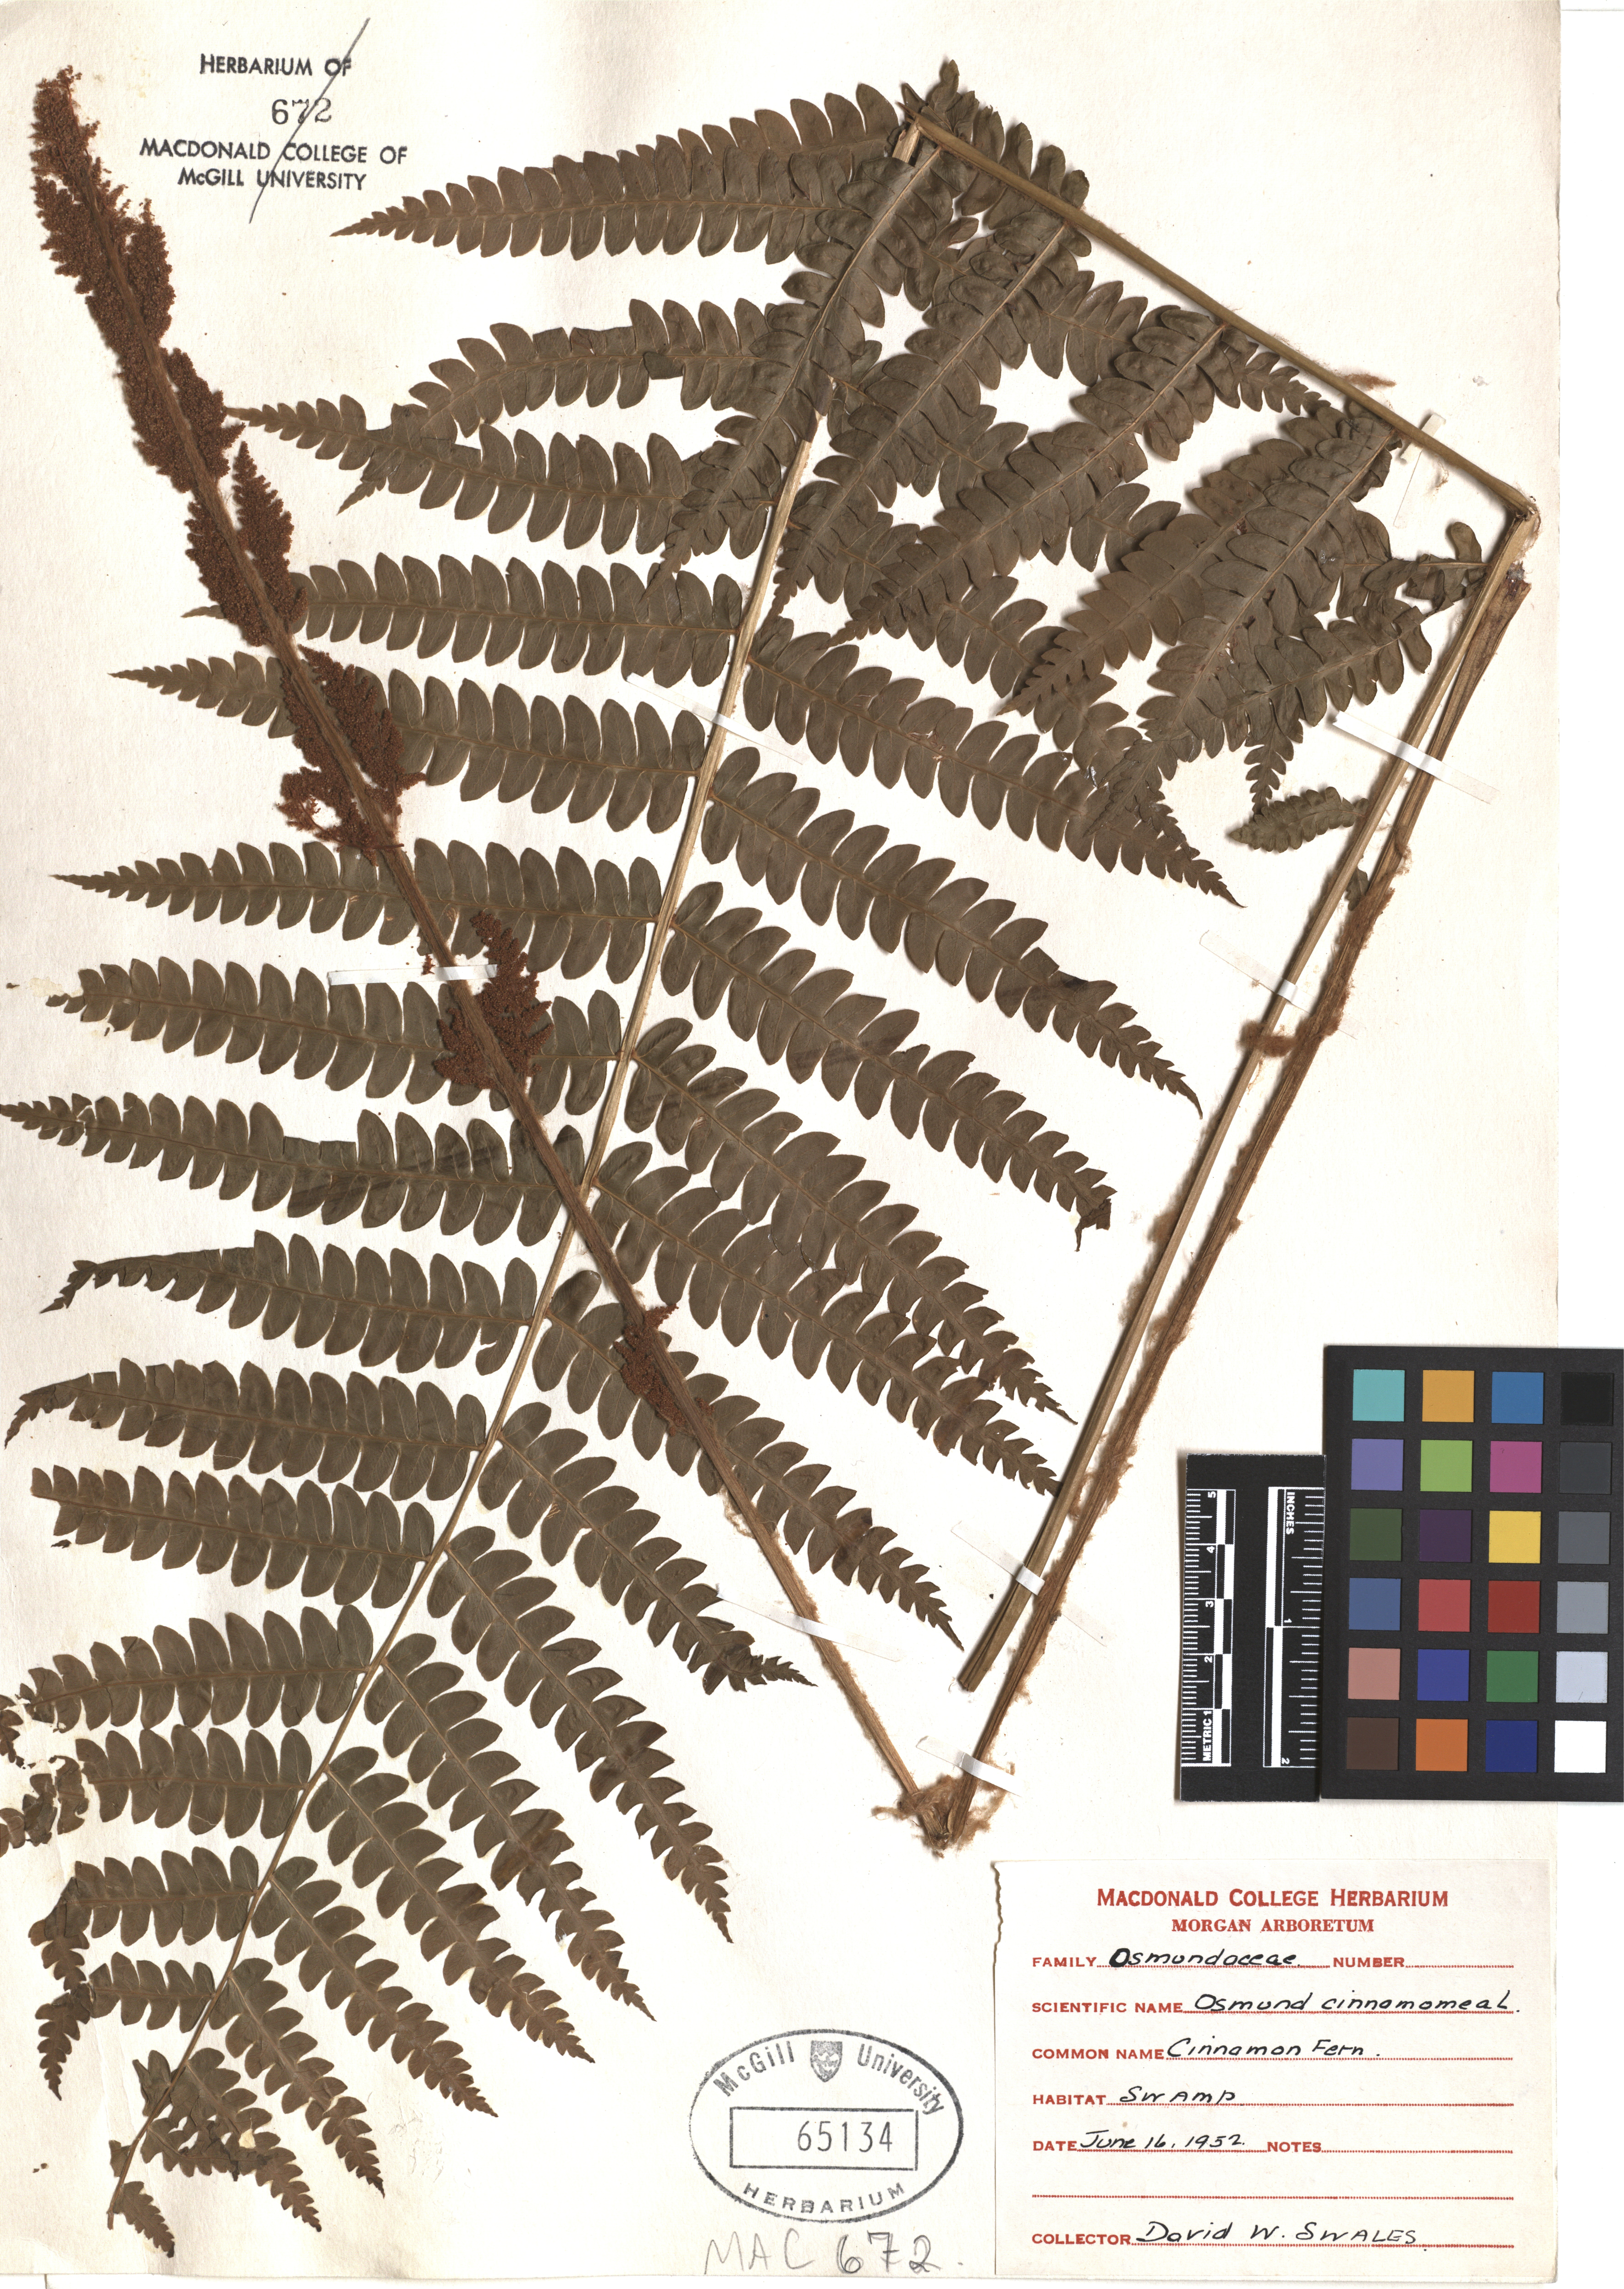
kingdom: Plantae
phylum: Tracheophyta
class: Polypodiopsida
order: Osmundales
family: Osmundaceae
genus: Osmundastrum
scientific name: Osmundastrum cinnamomeum
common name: Cinnamon fern
